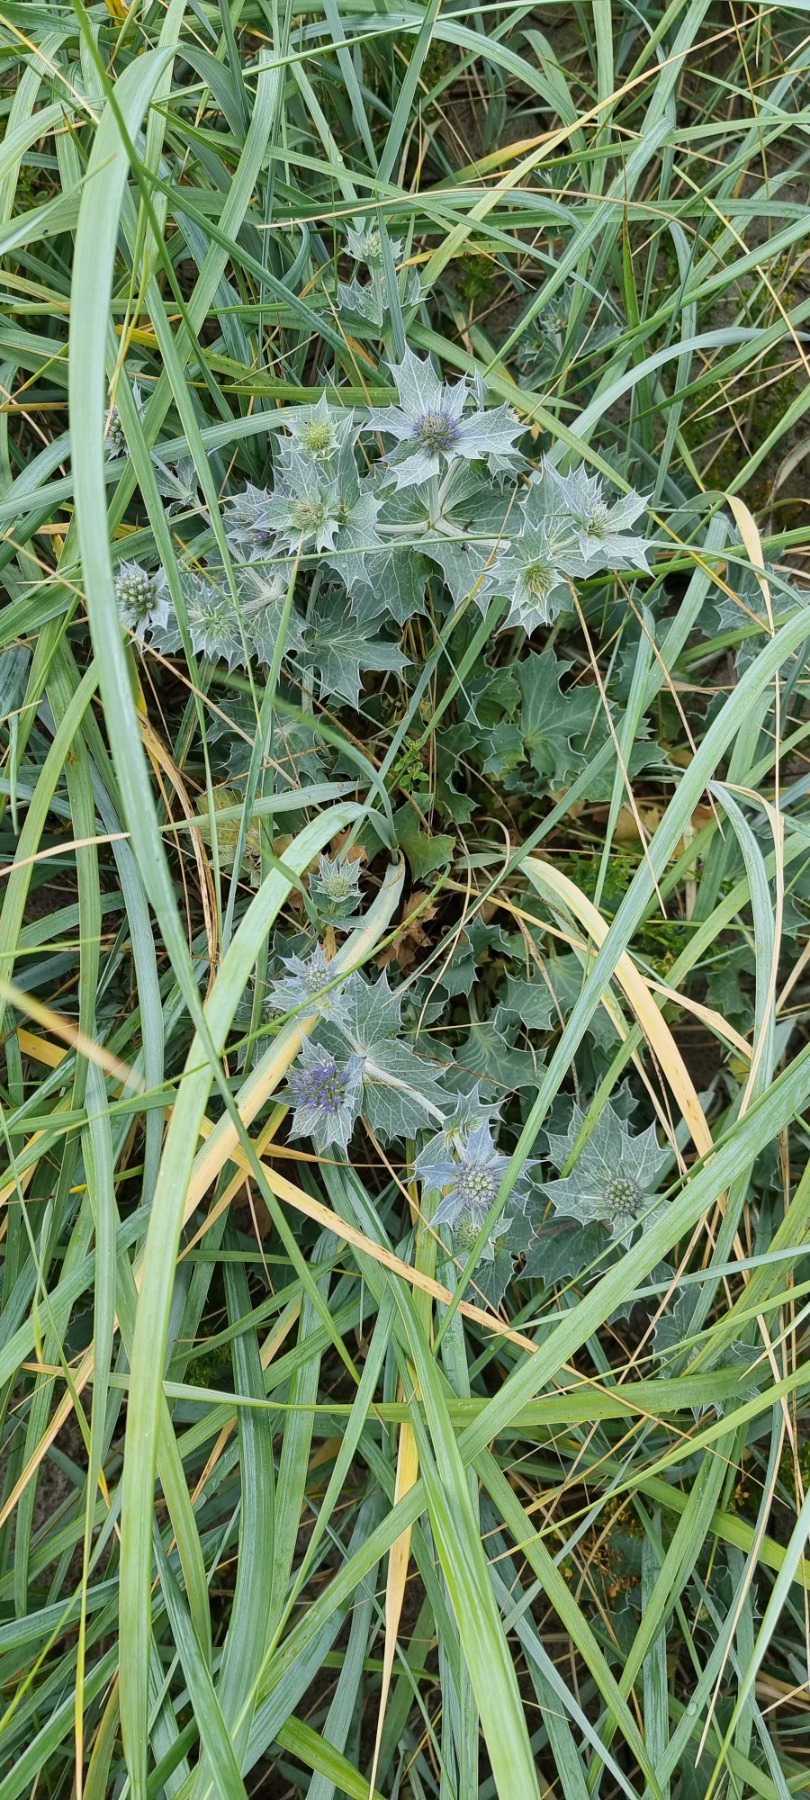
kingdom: Plantae
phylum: Tracheophyta
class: Magnoliopsida
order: Apiales
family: Apiaceae
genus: Eryngium
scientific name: Eryngium maritimum
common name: Strand-mandstro
